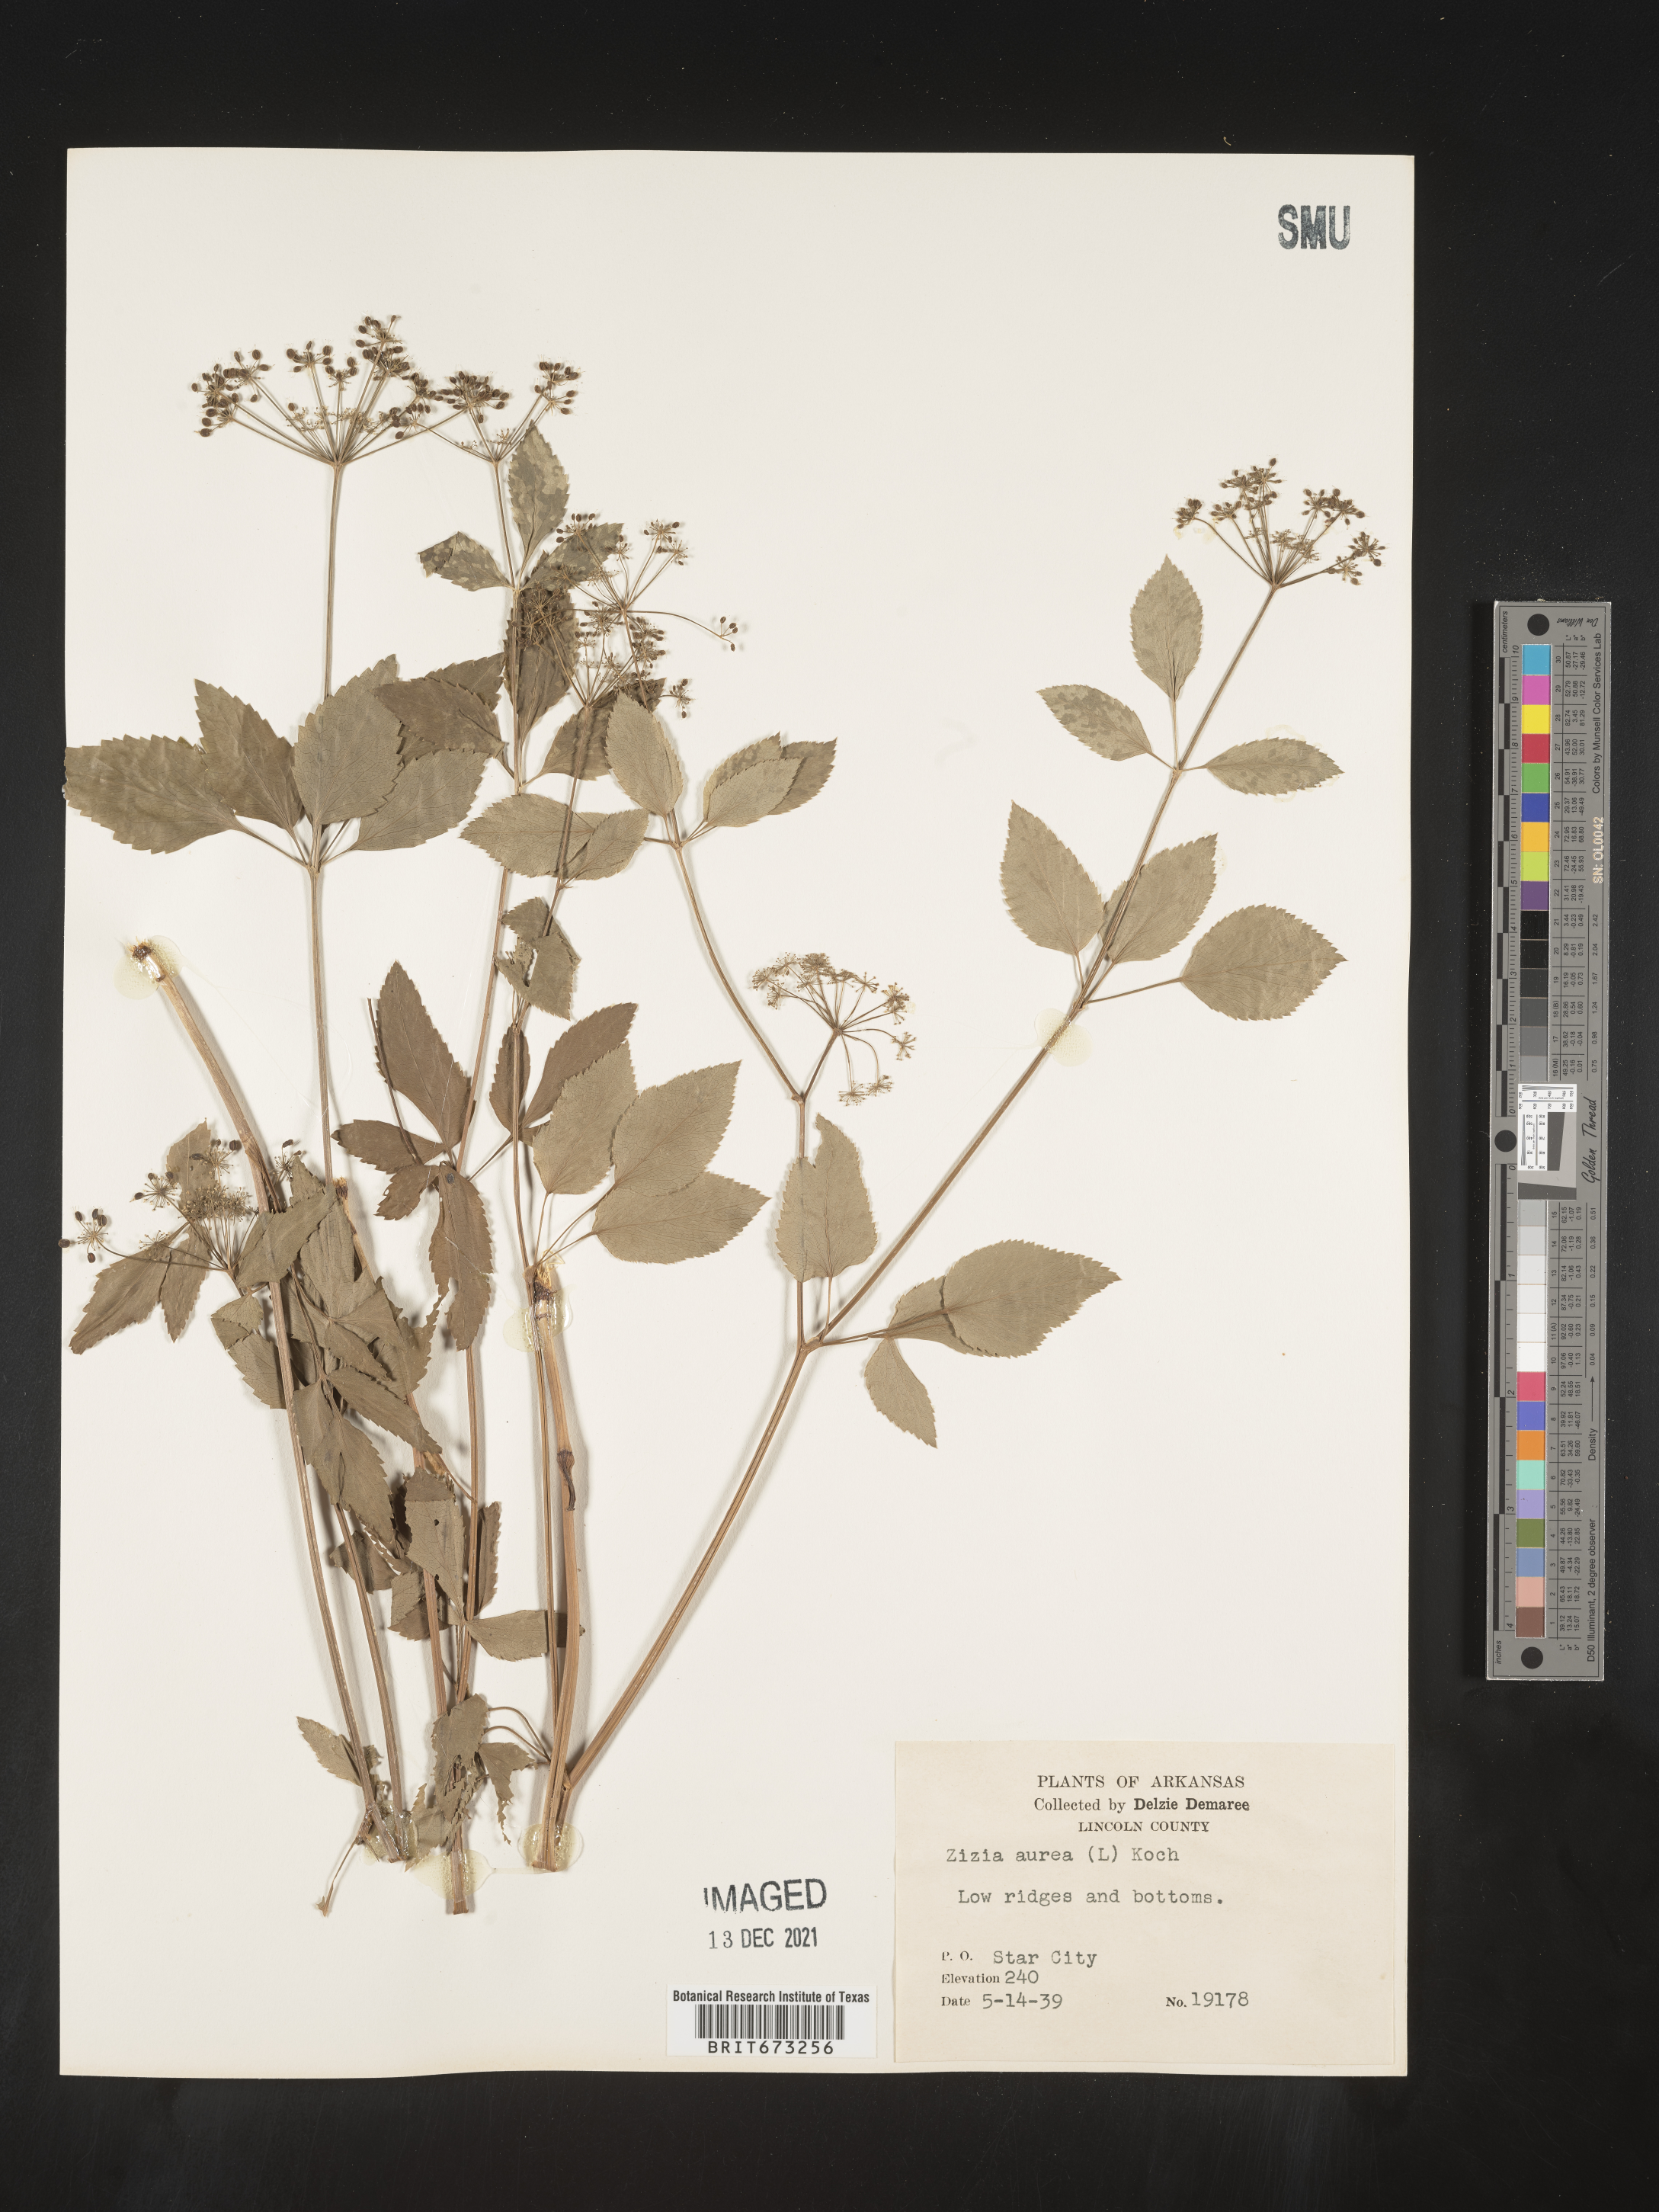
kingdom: Plantae
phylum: Tracheophyta
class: Magnoliopsida
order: Apiales
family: Apiaceae
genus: Zizia
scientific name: Zizia aurea
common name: Golden alexanders
